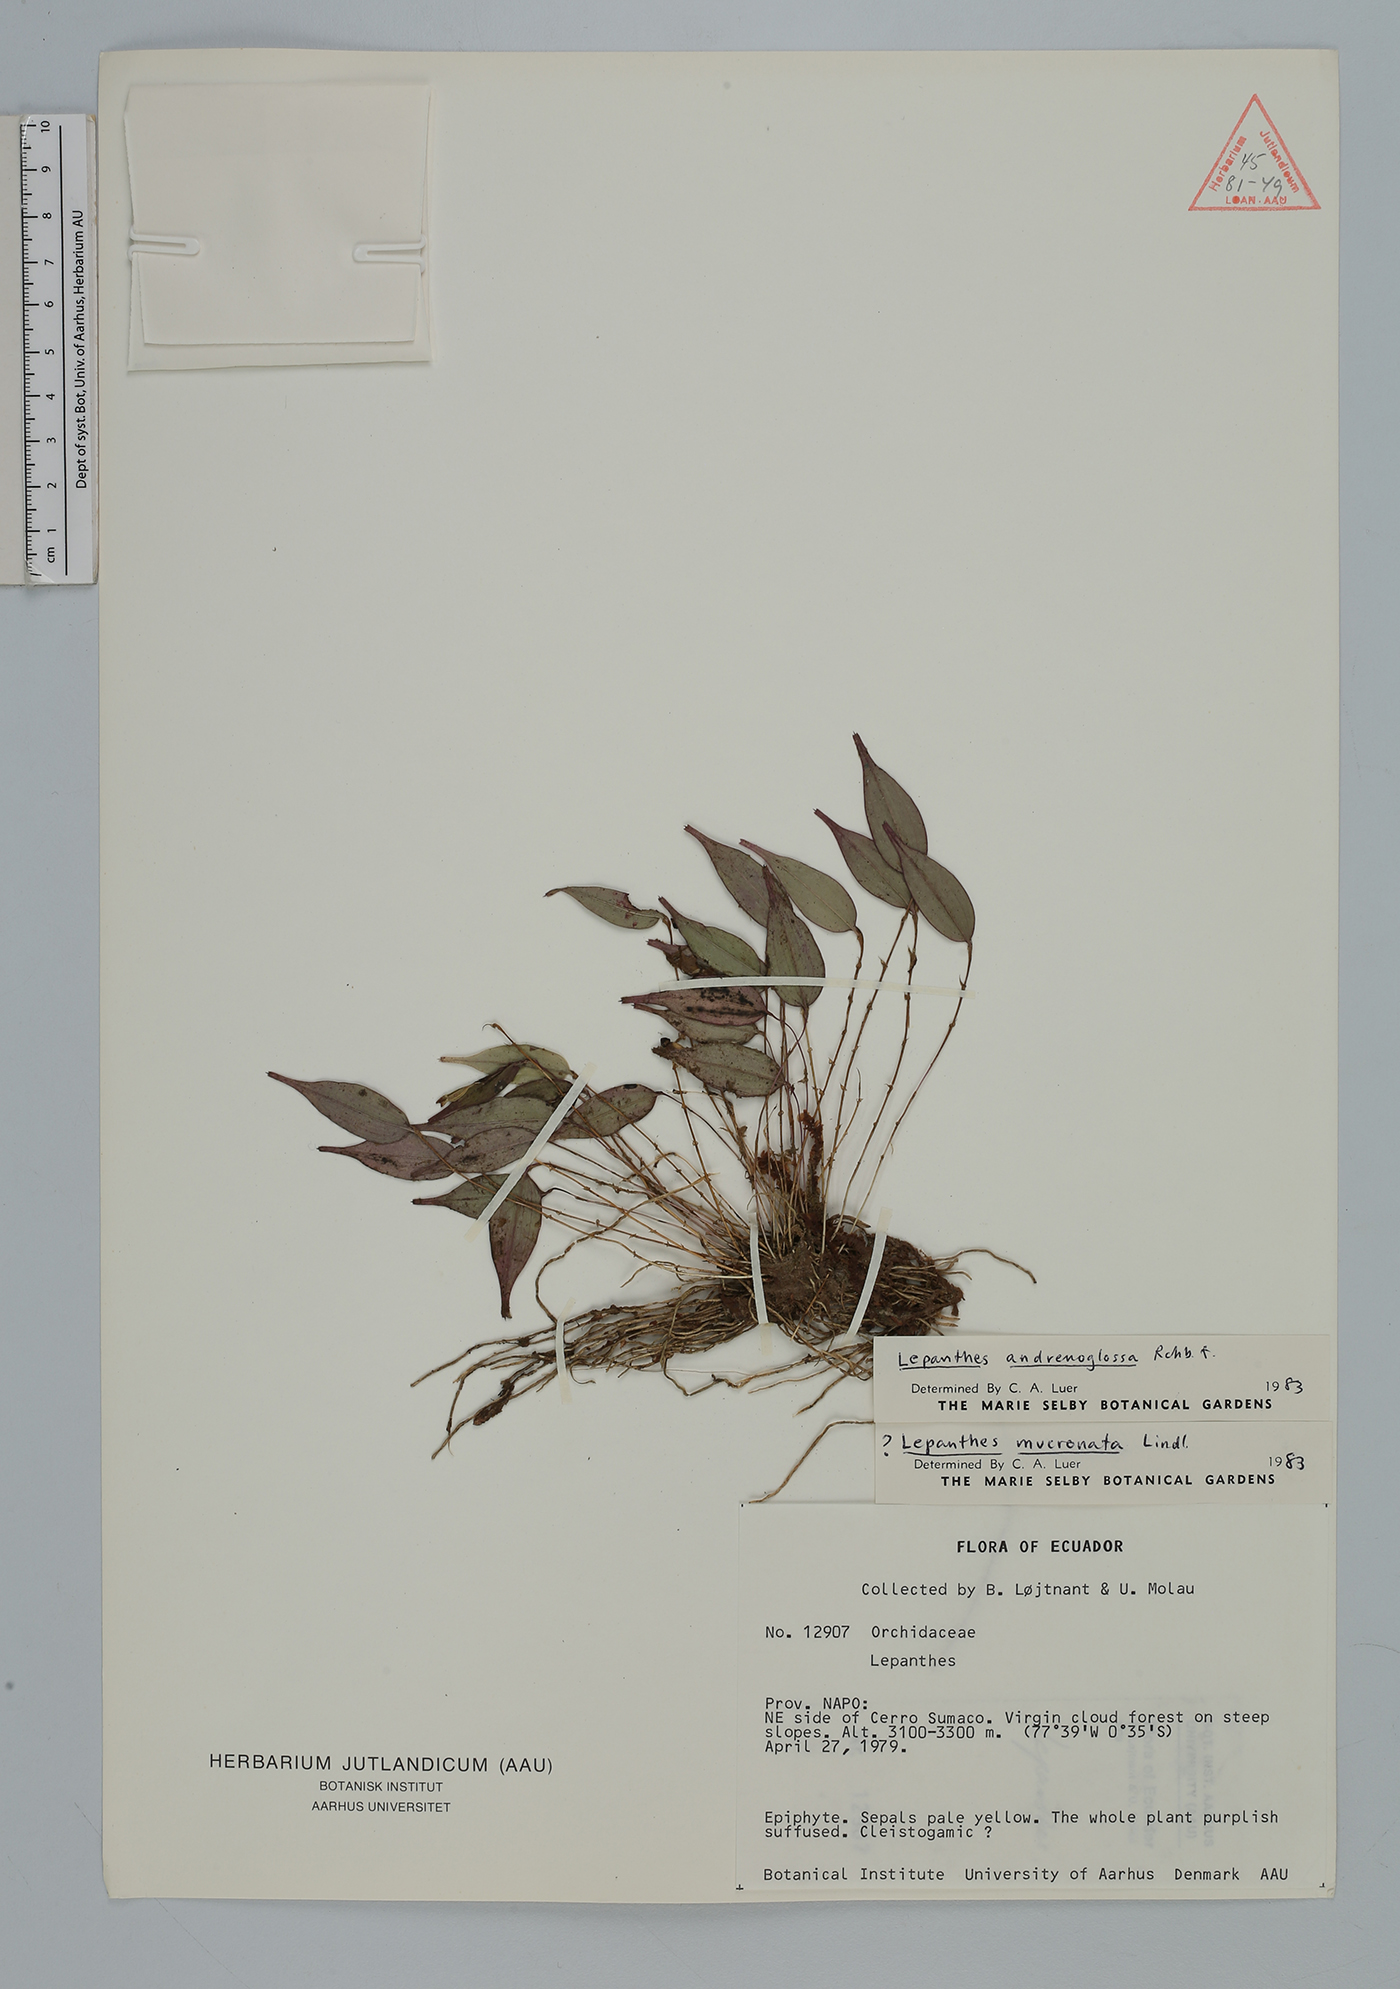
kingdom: Plantae
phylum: Tracheophyta
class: Liliopsida
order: Asparagales
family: Orchidaceae
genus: Lepanthes
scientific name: Lepanthes andrenoglossa
